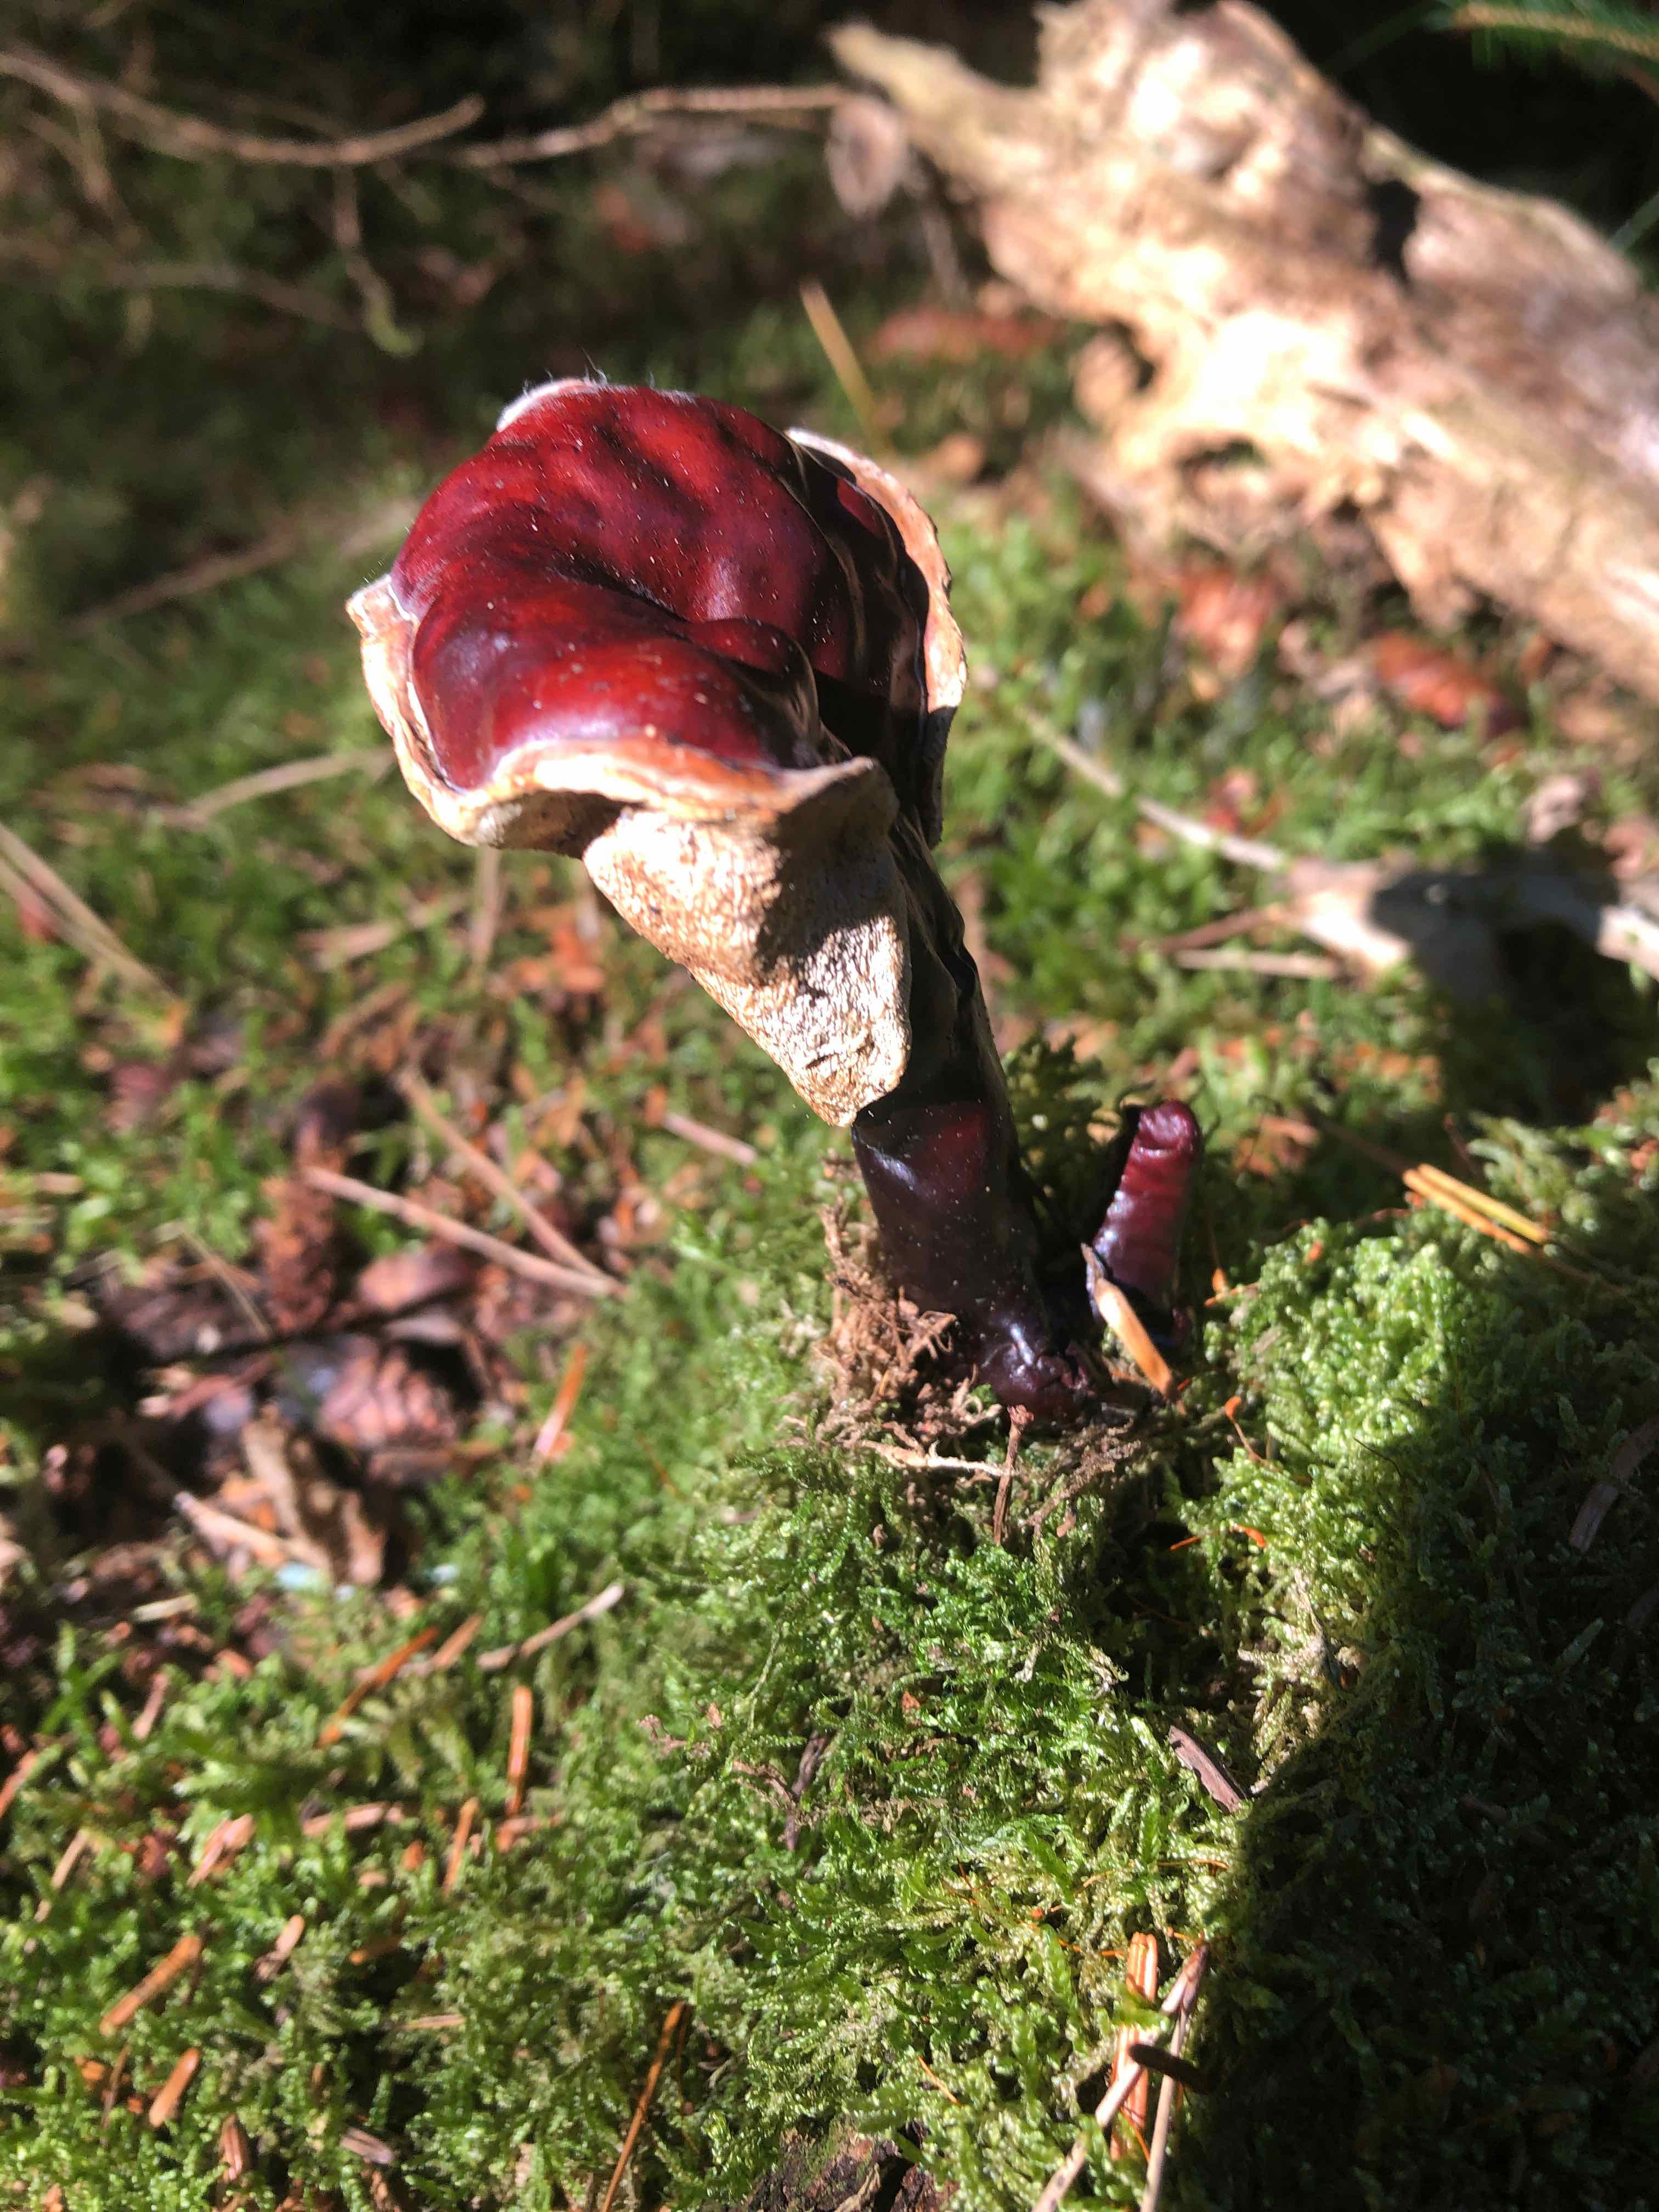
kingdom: Fungi
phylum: Basidiomycota
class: Agaricomycetes
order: Polyporales
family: Polyporaceae
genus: Ganoderma
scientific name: Ganoderma lucidum
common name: skinnende lakporesvamp
